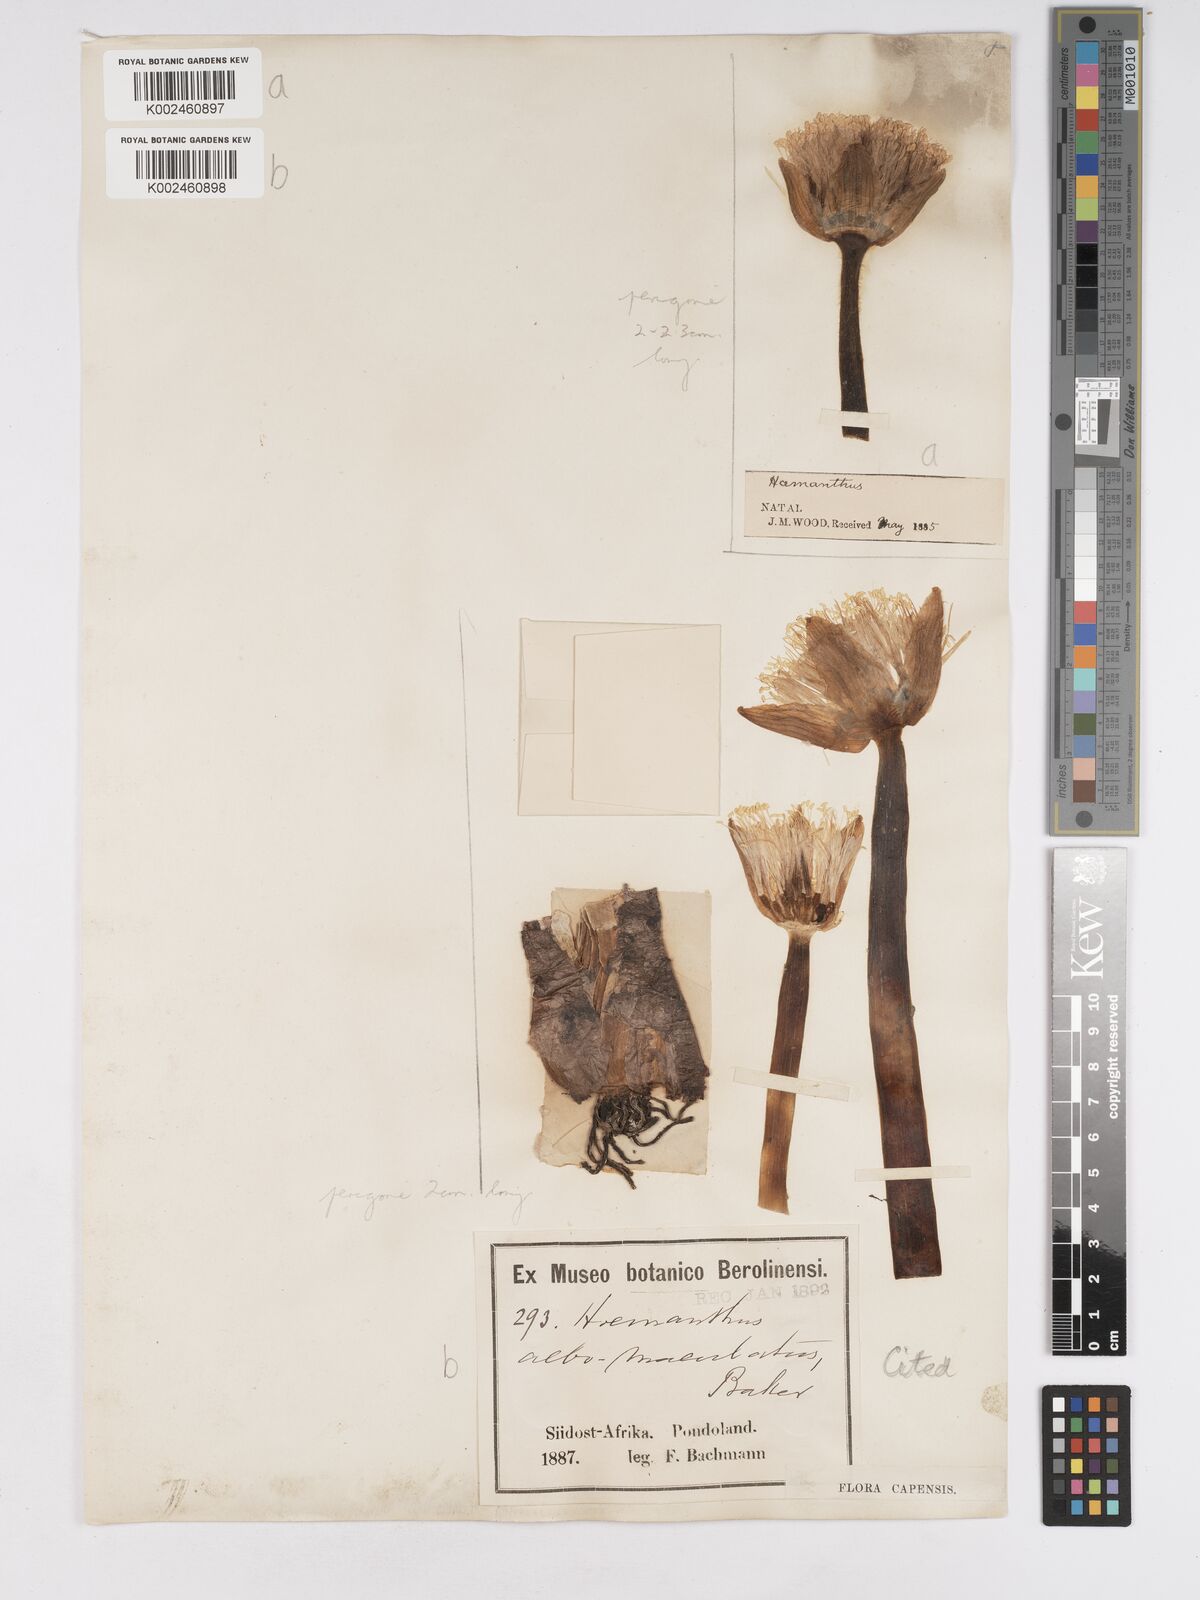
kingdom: Plantae
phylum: Tracheophyta
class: Liliopsida
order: Asparagales
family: Amaryllidaceae
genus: Haemanthus
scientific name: Haemanthus albiflos
